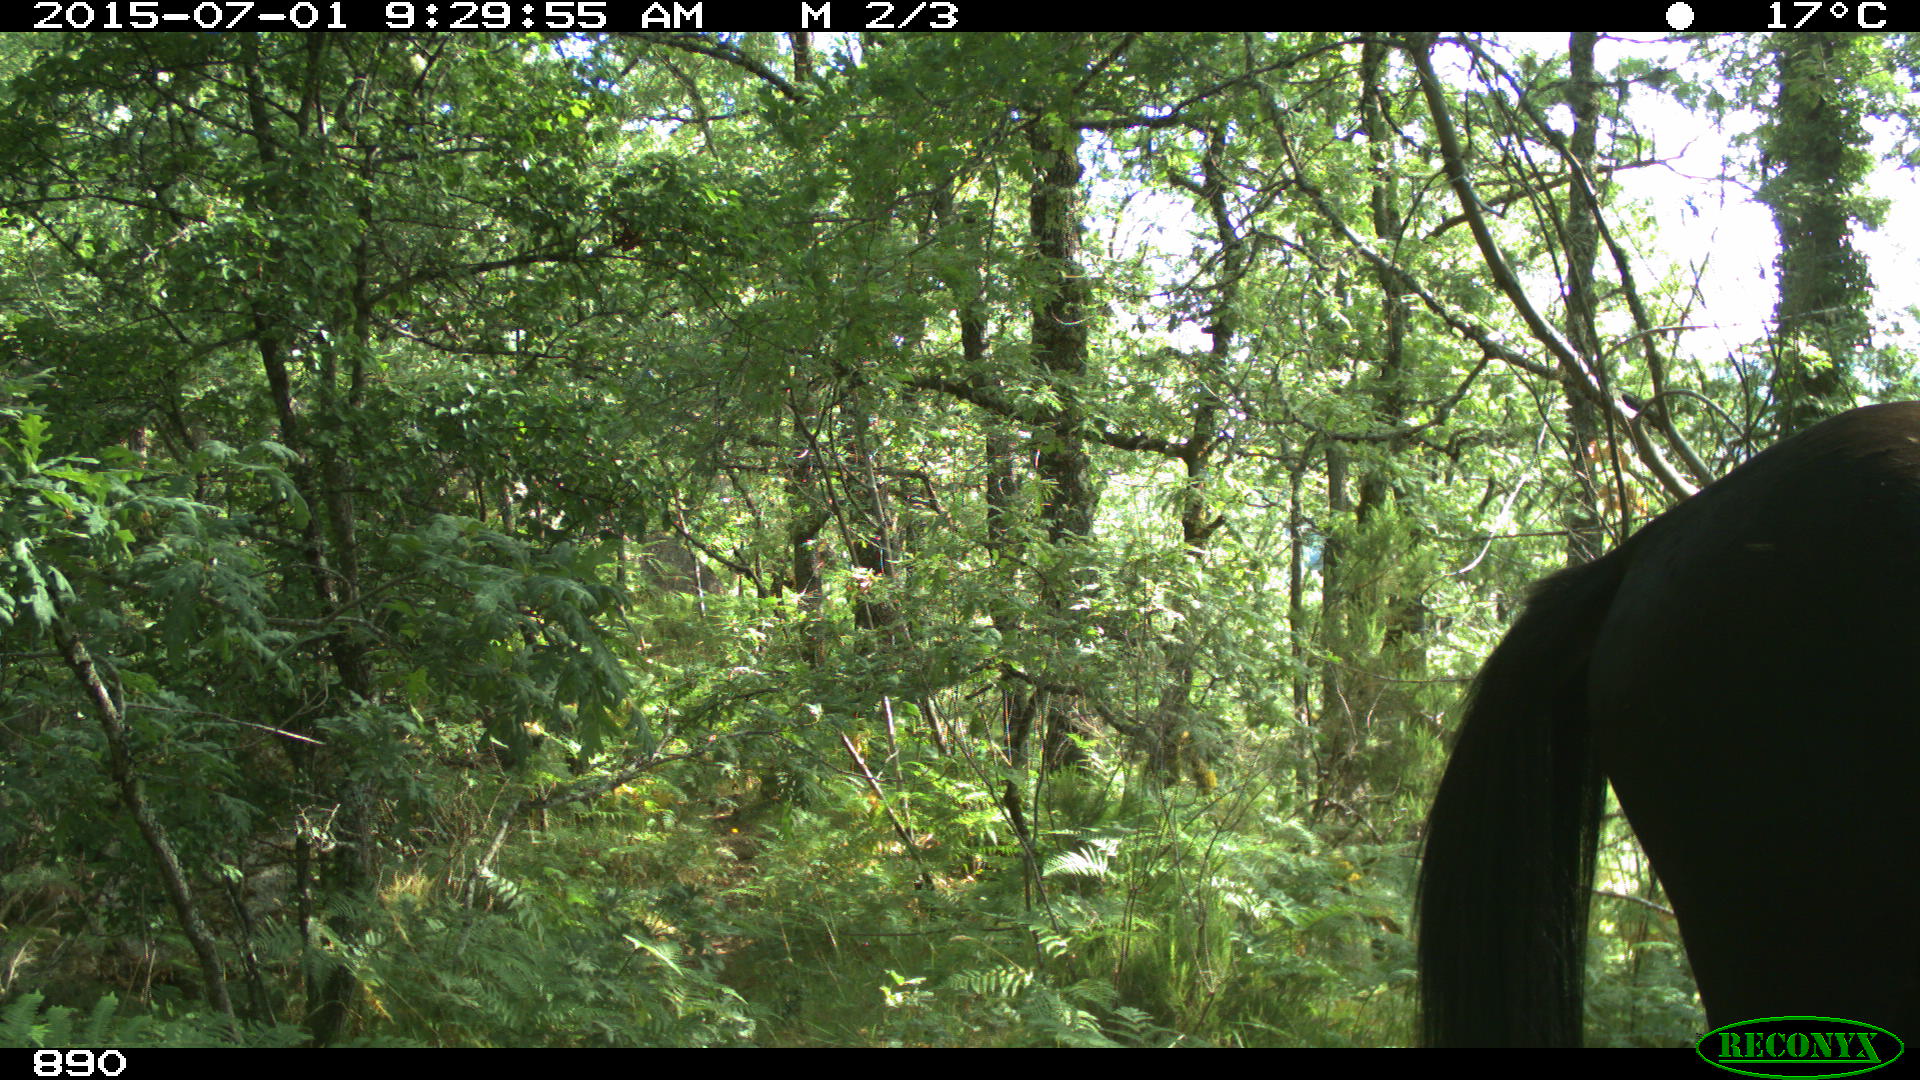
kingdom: Animalia
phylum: Chordata
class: Mammalia
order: Perissodactyla
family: Equidae
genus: Equus
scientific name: Equus caballus
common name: Horse
